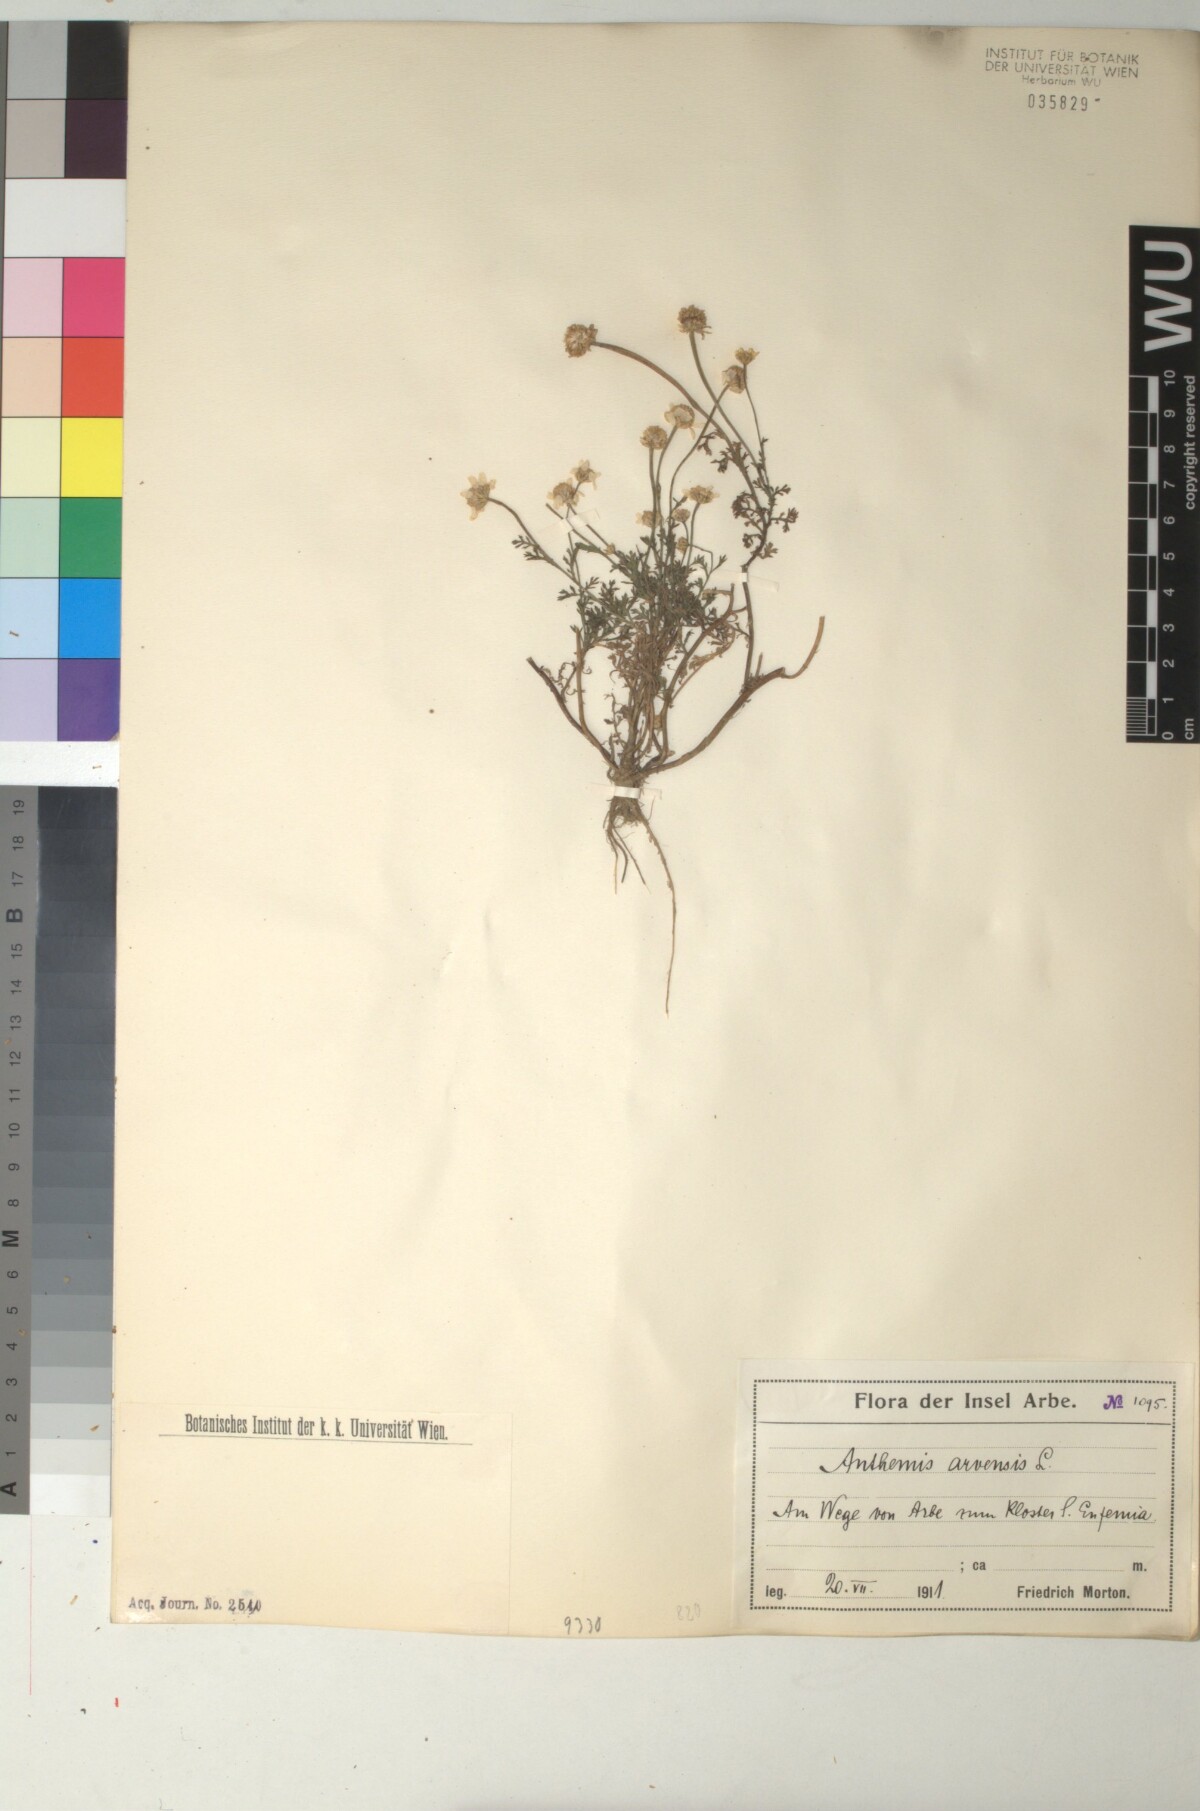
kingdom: Plantae
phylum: Tracheophyta
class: Magnoliopsida
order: Asterales
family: Asteraceae
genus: Anthemis
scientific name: Anthemis arvensis
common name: Corn chamomile
